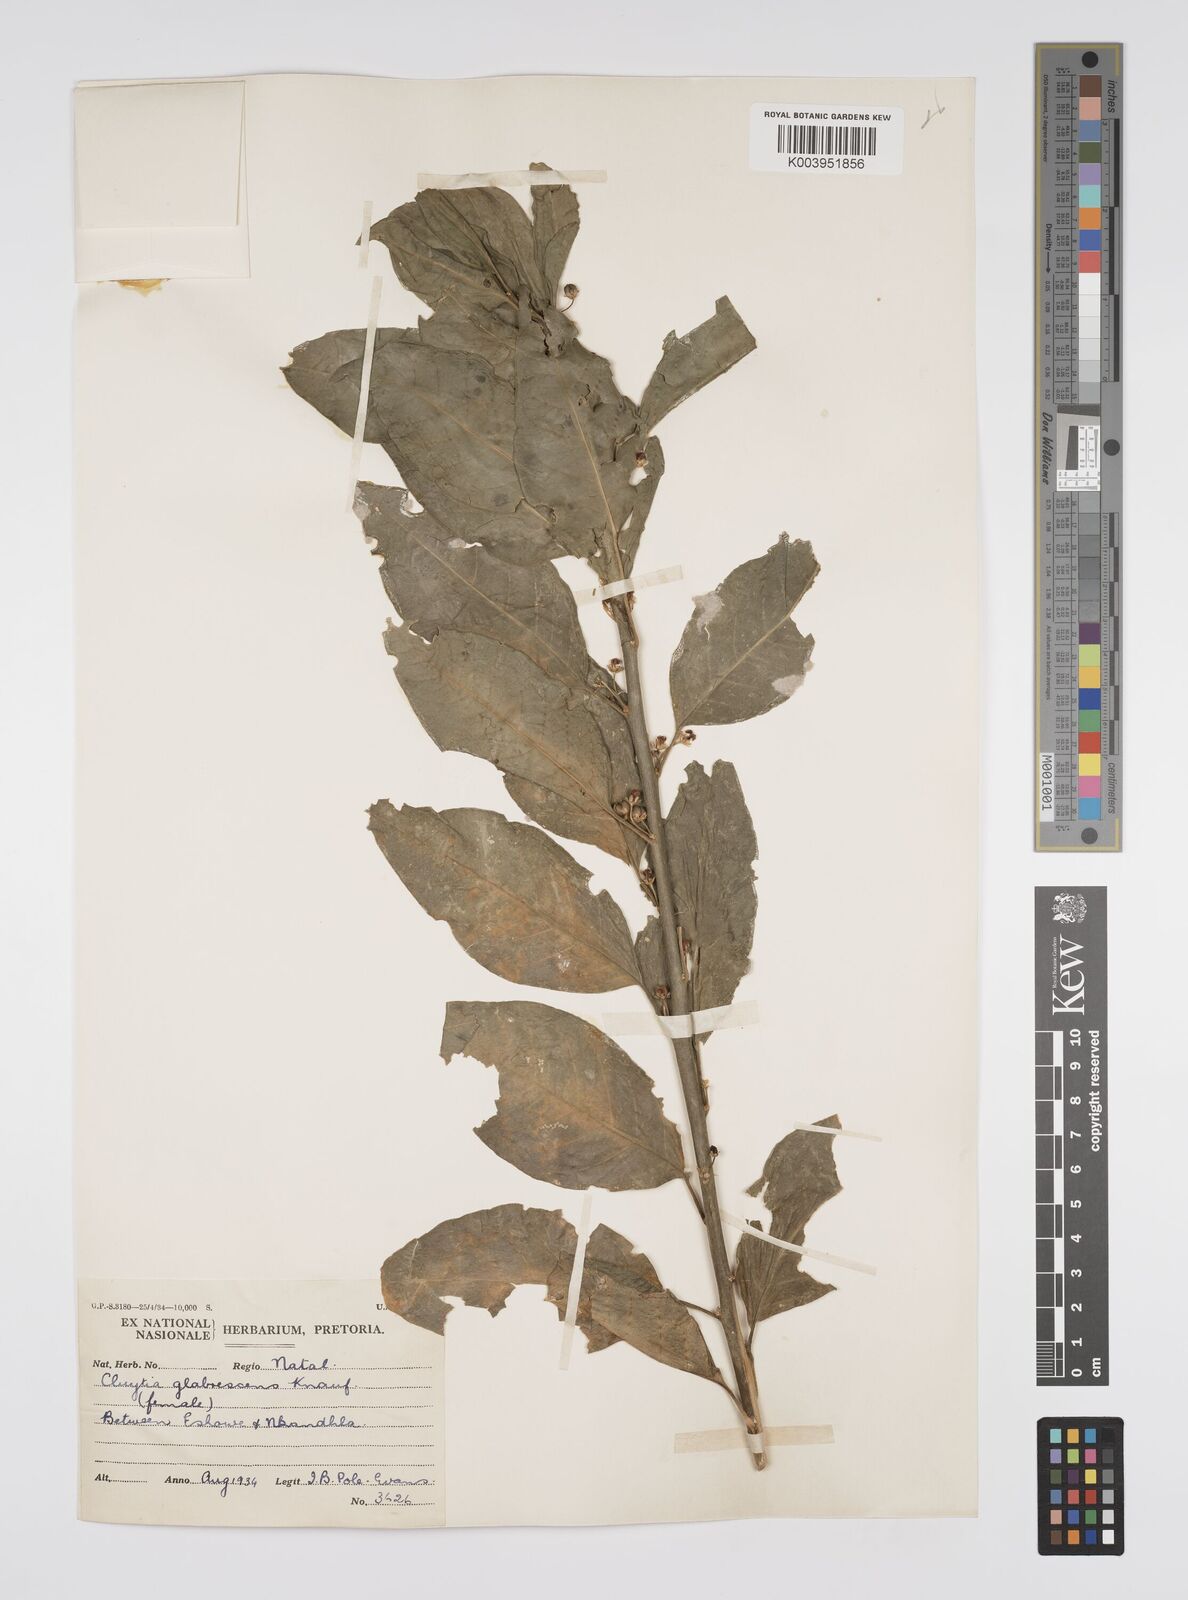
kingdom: Plantae
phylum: Tracheophyta
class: Magnoliopsida
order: Malpighiales
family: Peraceae
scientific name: Peraceae
